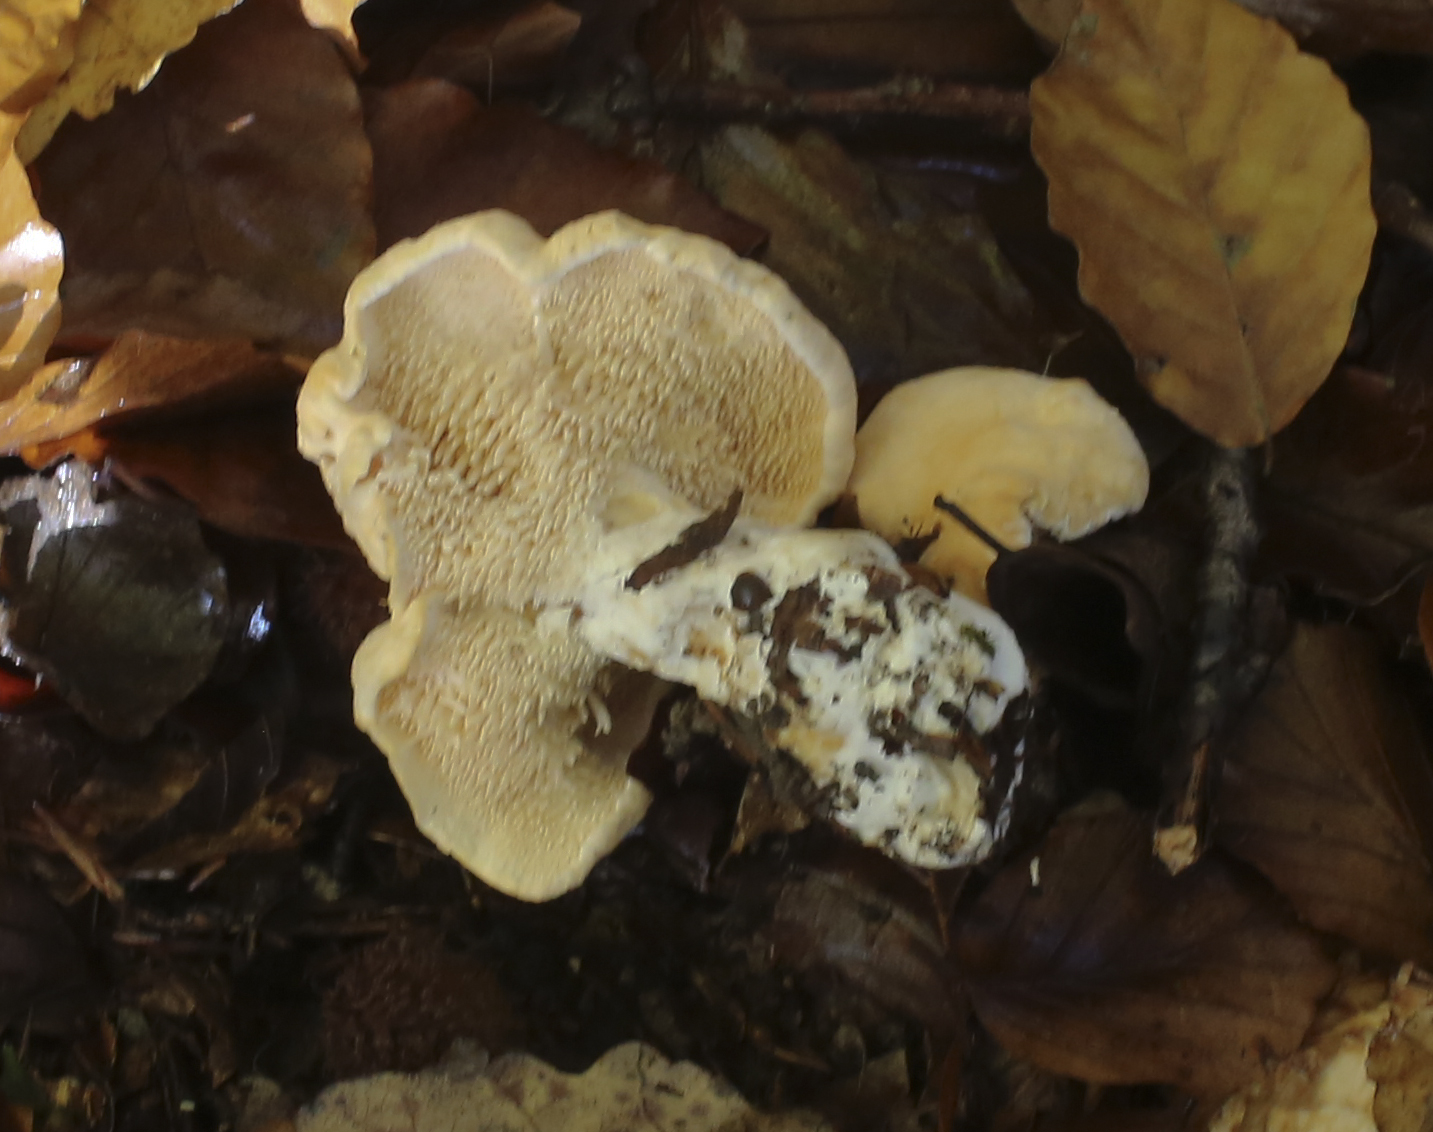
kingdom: Fungi
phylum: Basidiomycota
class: Agaricomycetes
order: Cantharellales
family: Hydnaceae
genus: Hydnum
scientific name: Hydnum
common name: pigsvamp
